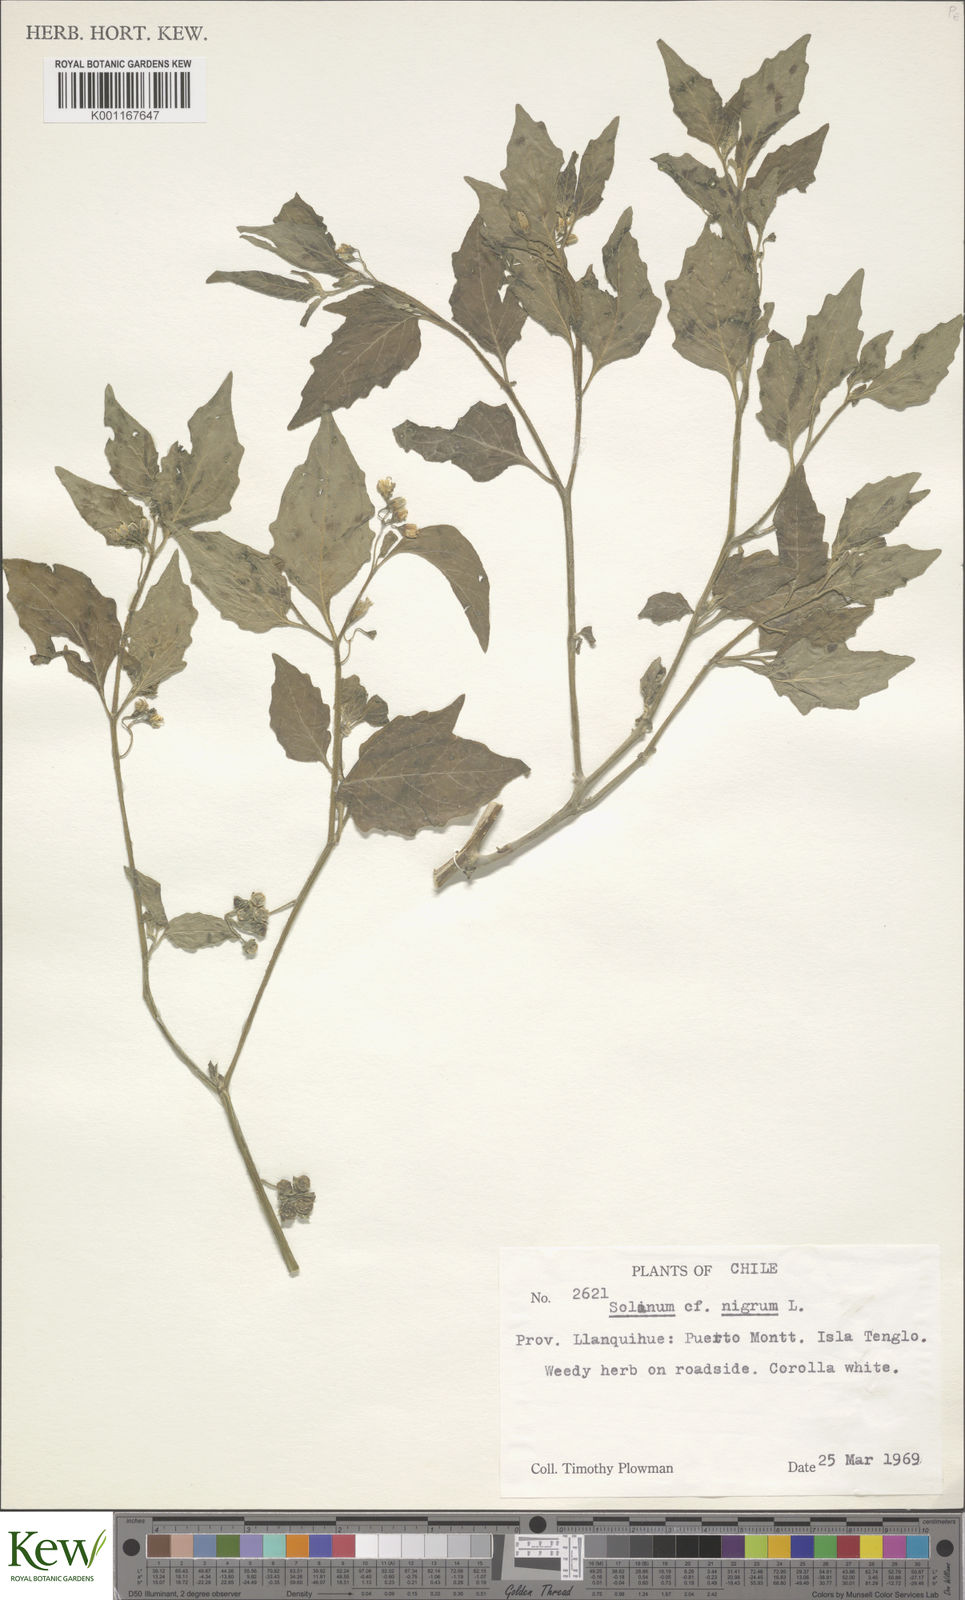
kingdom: Plantae
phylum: Tracheophyta
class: Magnoliopsida
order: Solanales
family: Solanaceae
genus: Solanum
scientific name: Solanum furcatum
